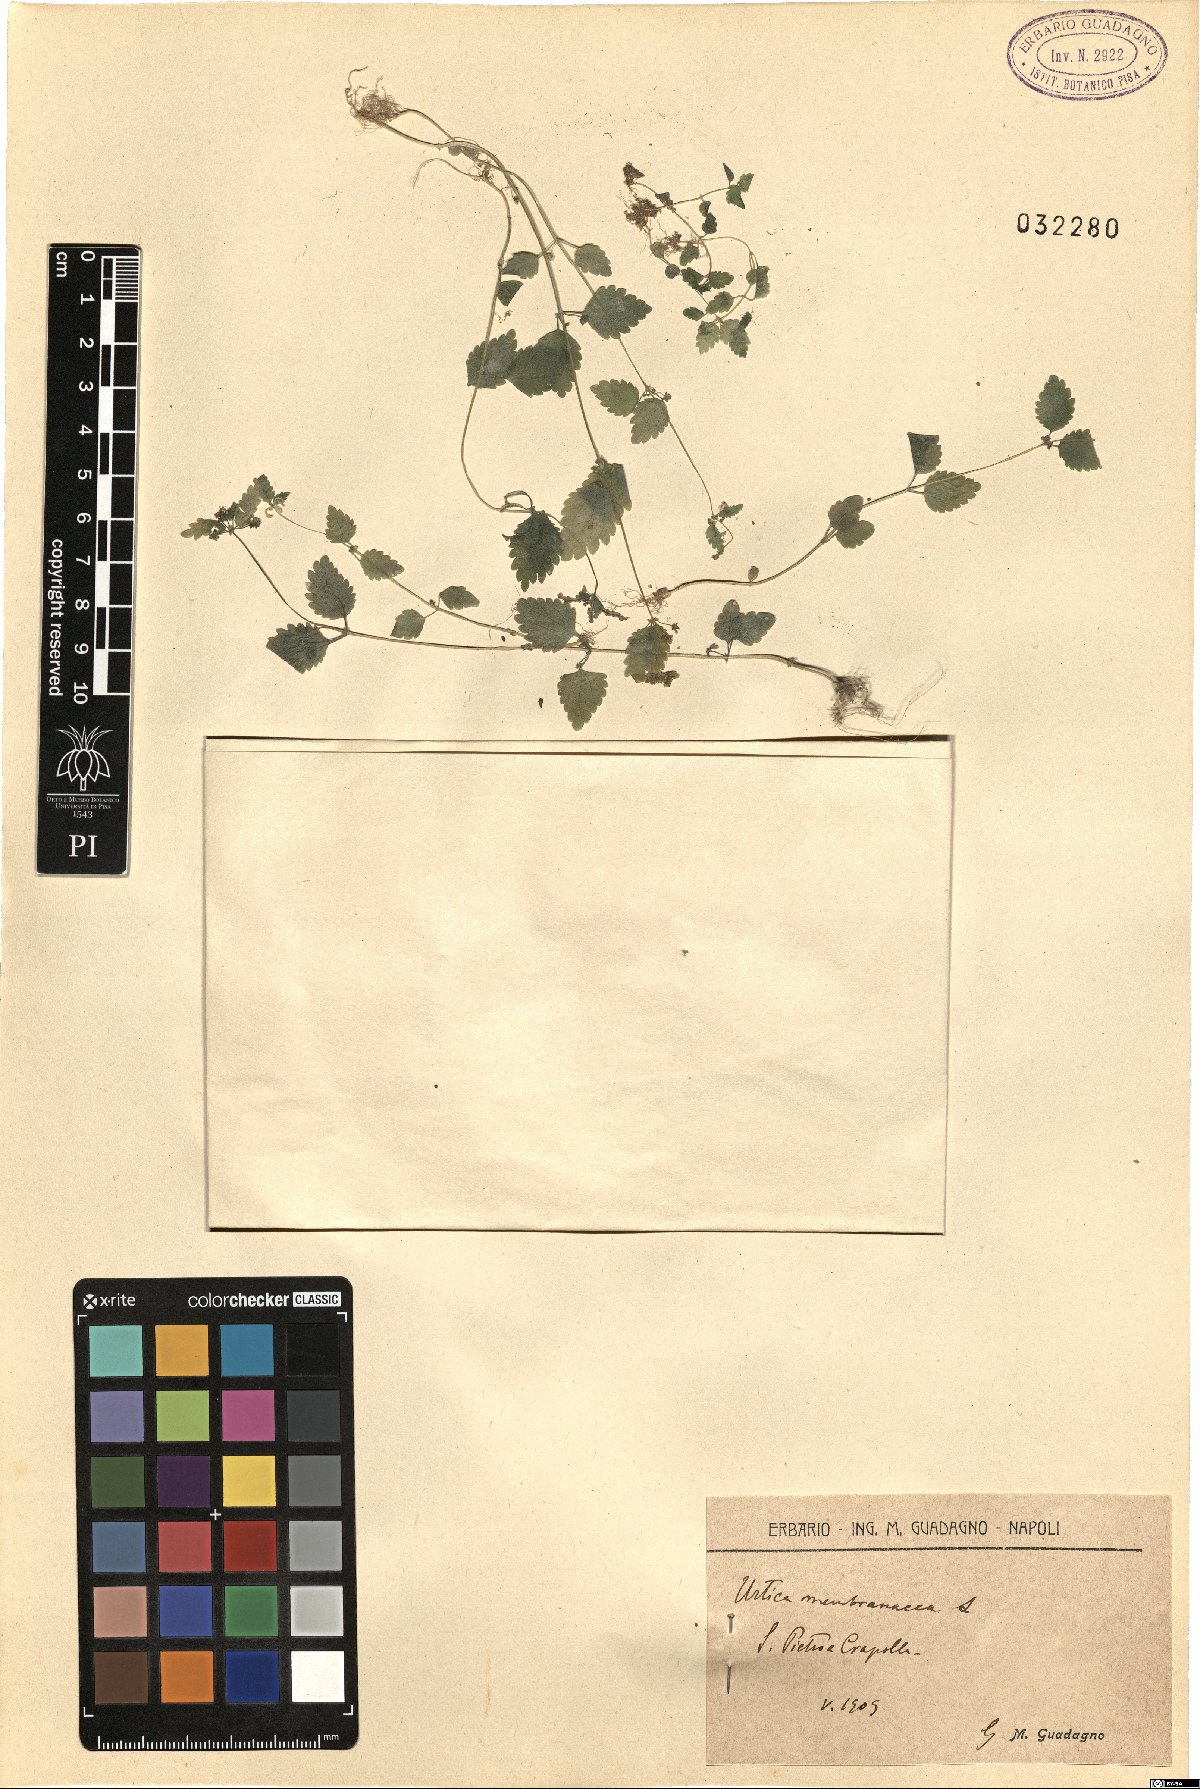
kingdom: Plantae
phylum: Tracheophyta
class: Magnoliopsida
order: Rosales
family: Urticaceae
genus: Urtica
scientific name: Urtica membranacea
